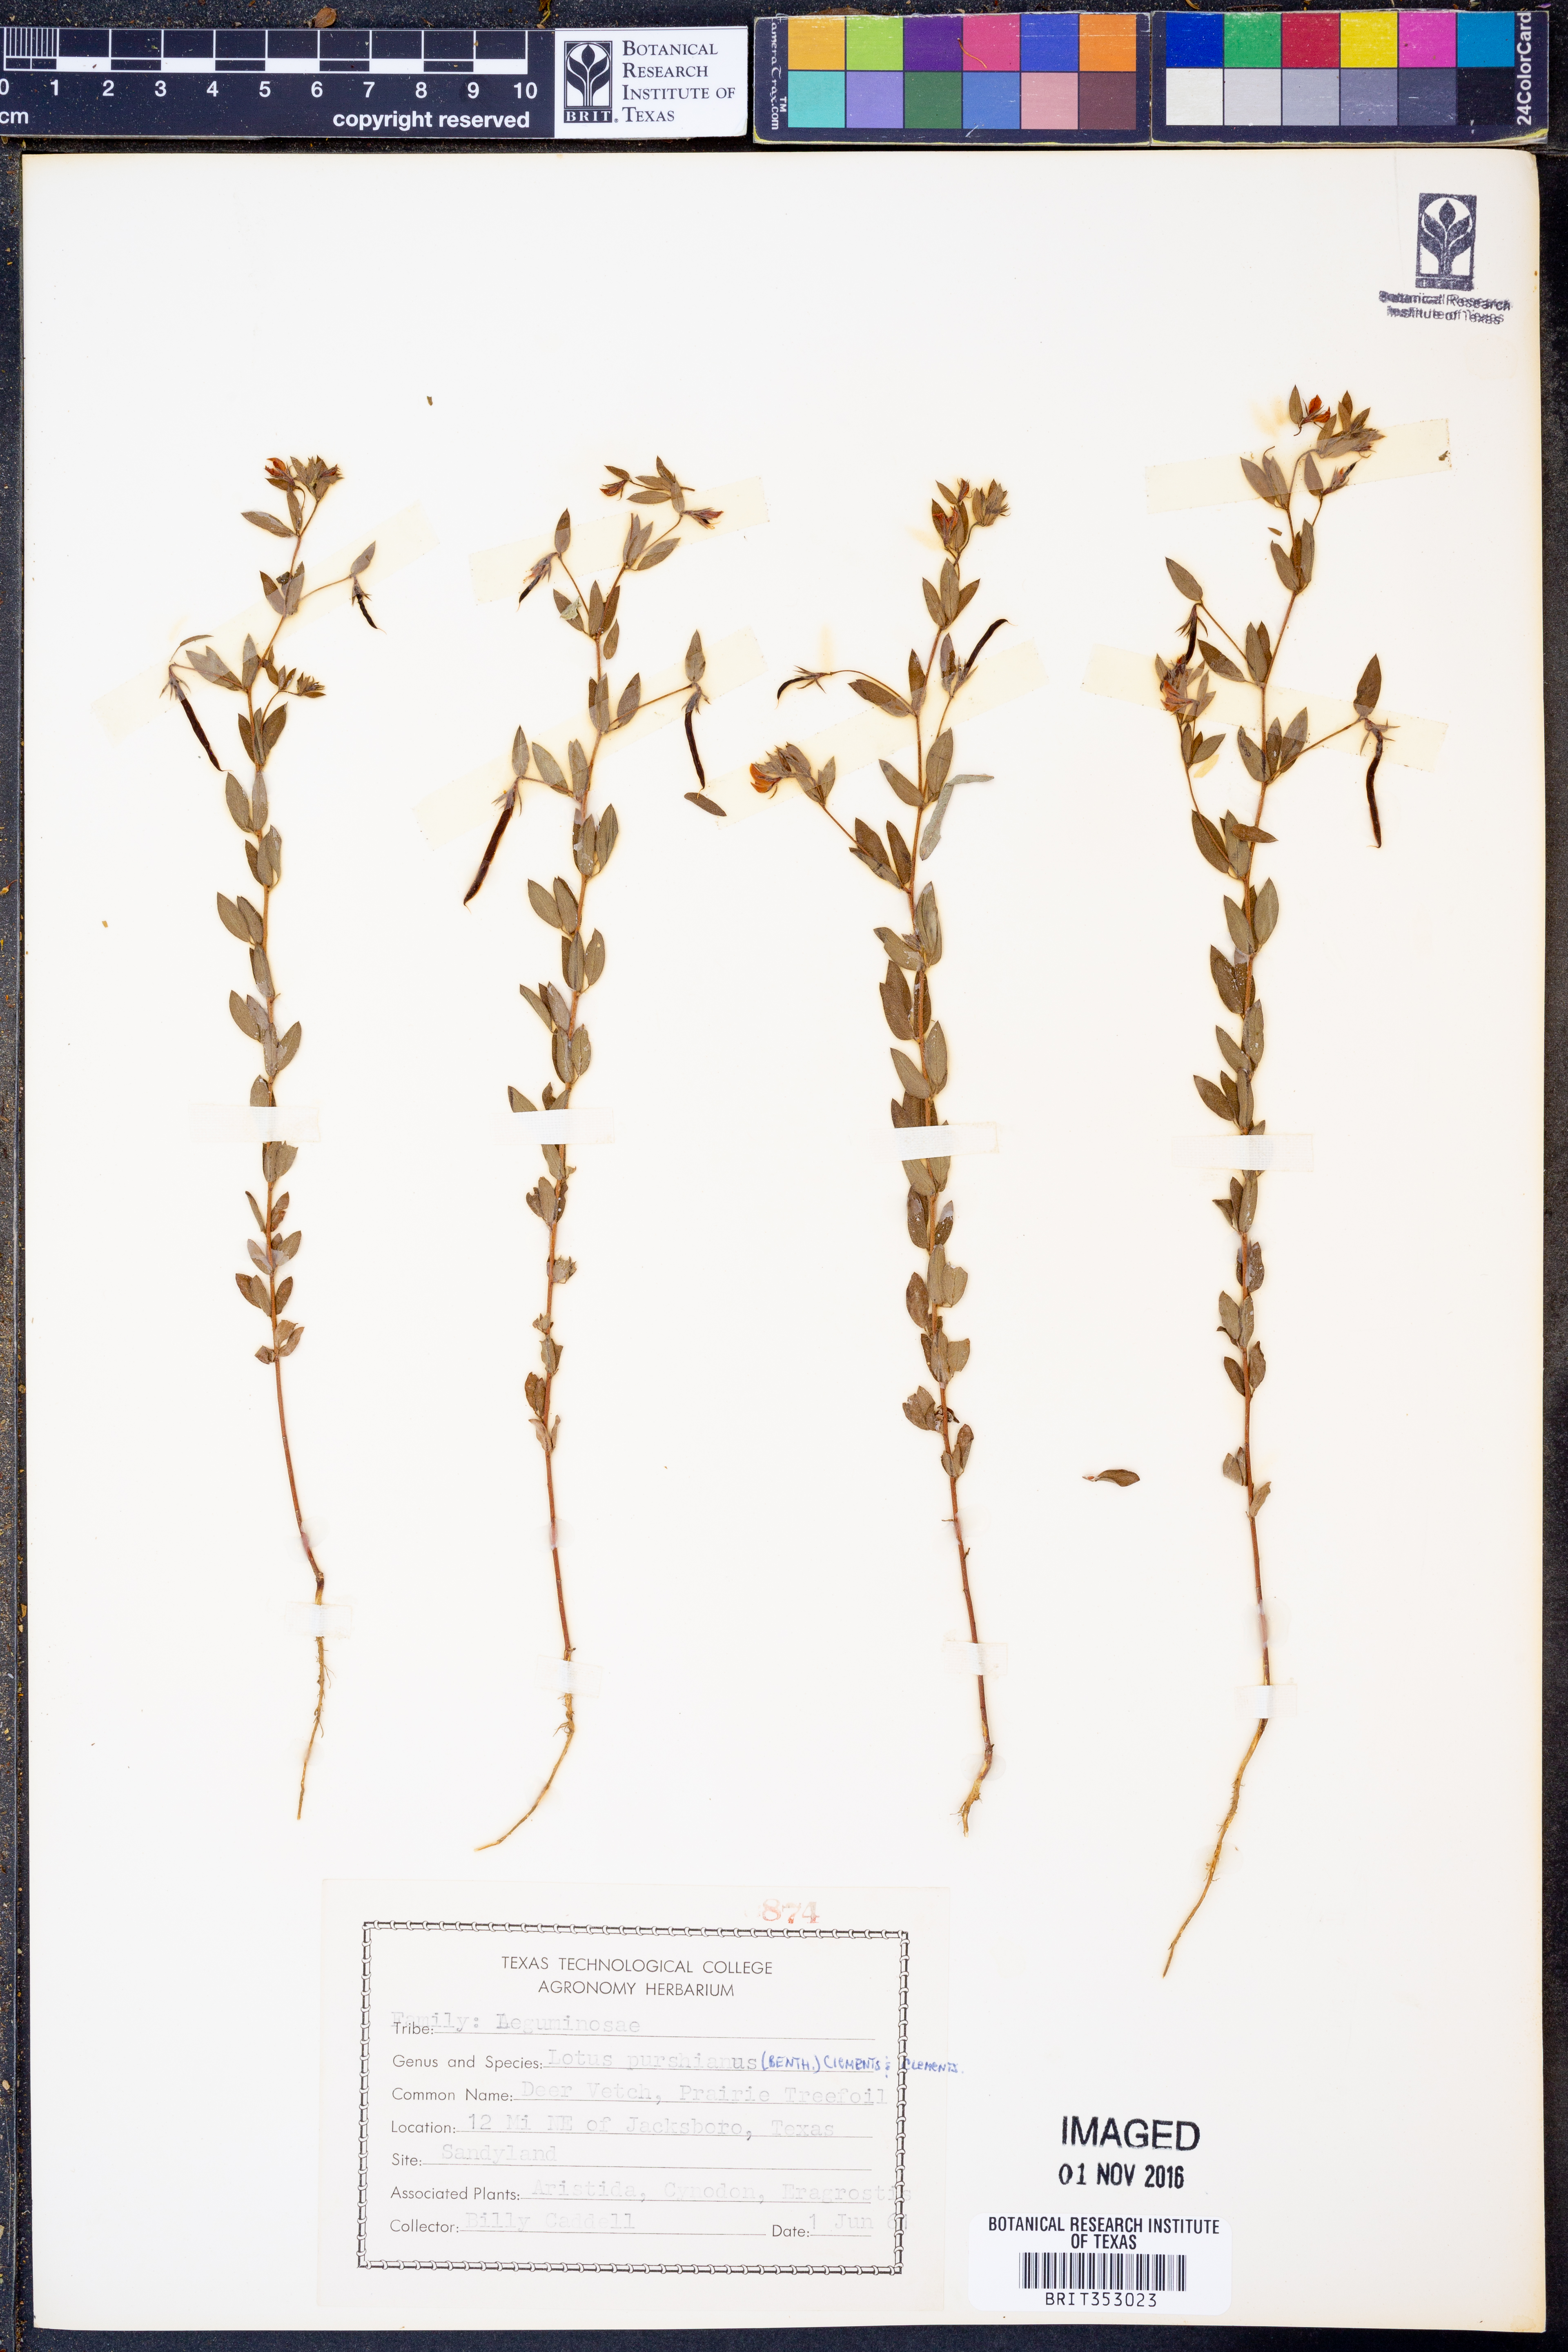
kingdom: Plantae
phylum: Tracheophyta
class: Magnoliopsida
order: Fabales
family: Fabaceae
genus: Acmispon
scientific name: Acmispon americanus
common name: American bird's-foot trefoil
